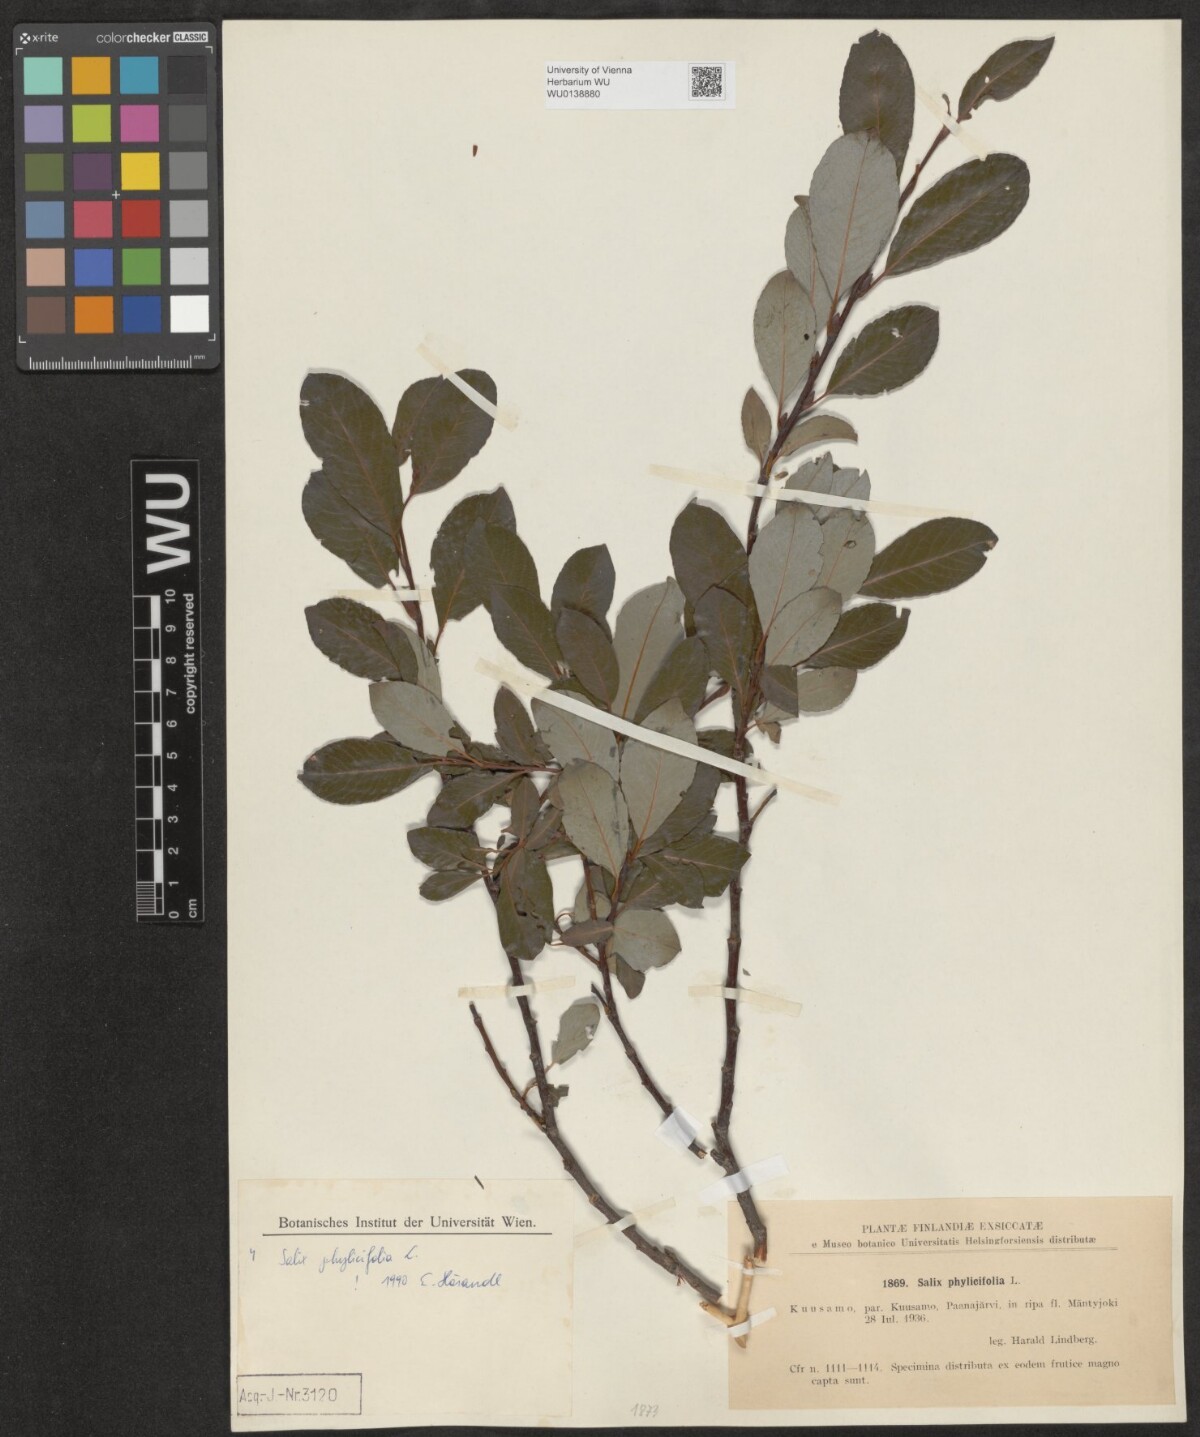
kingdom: Plantae
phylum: Tracheophyta
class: Magnoliopsida
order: Malpighiales
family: Salicaceae
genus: Salix
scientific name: Salix phylicifolia
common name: Tea-leaved willow
